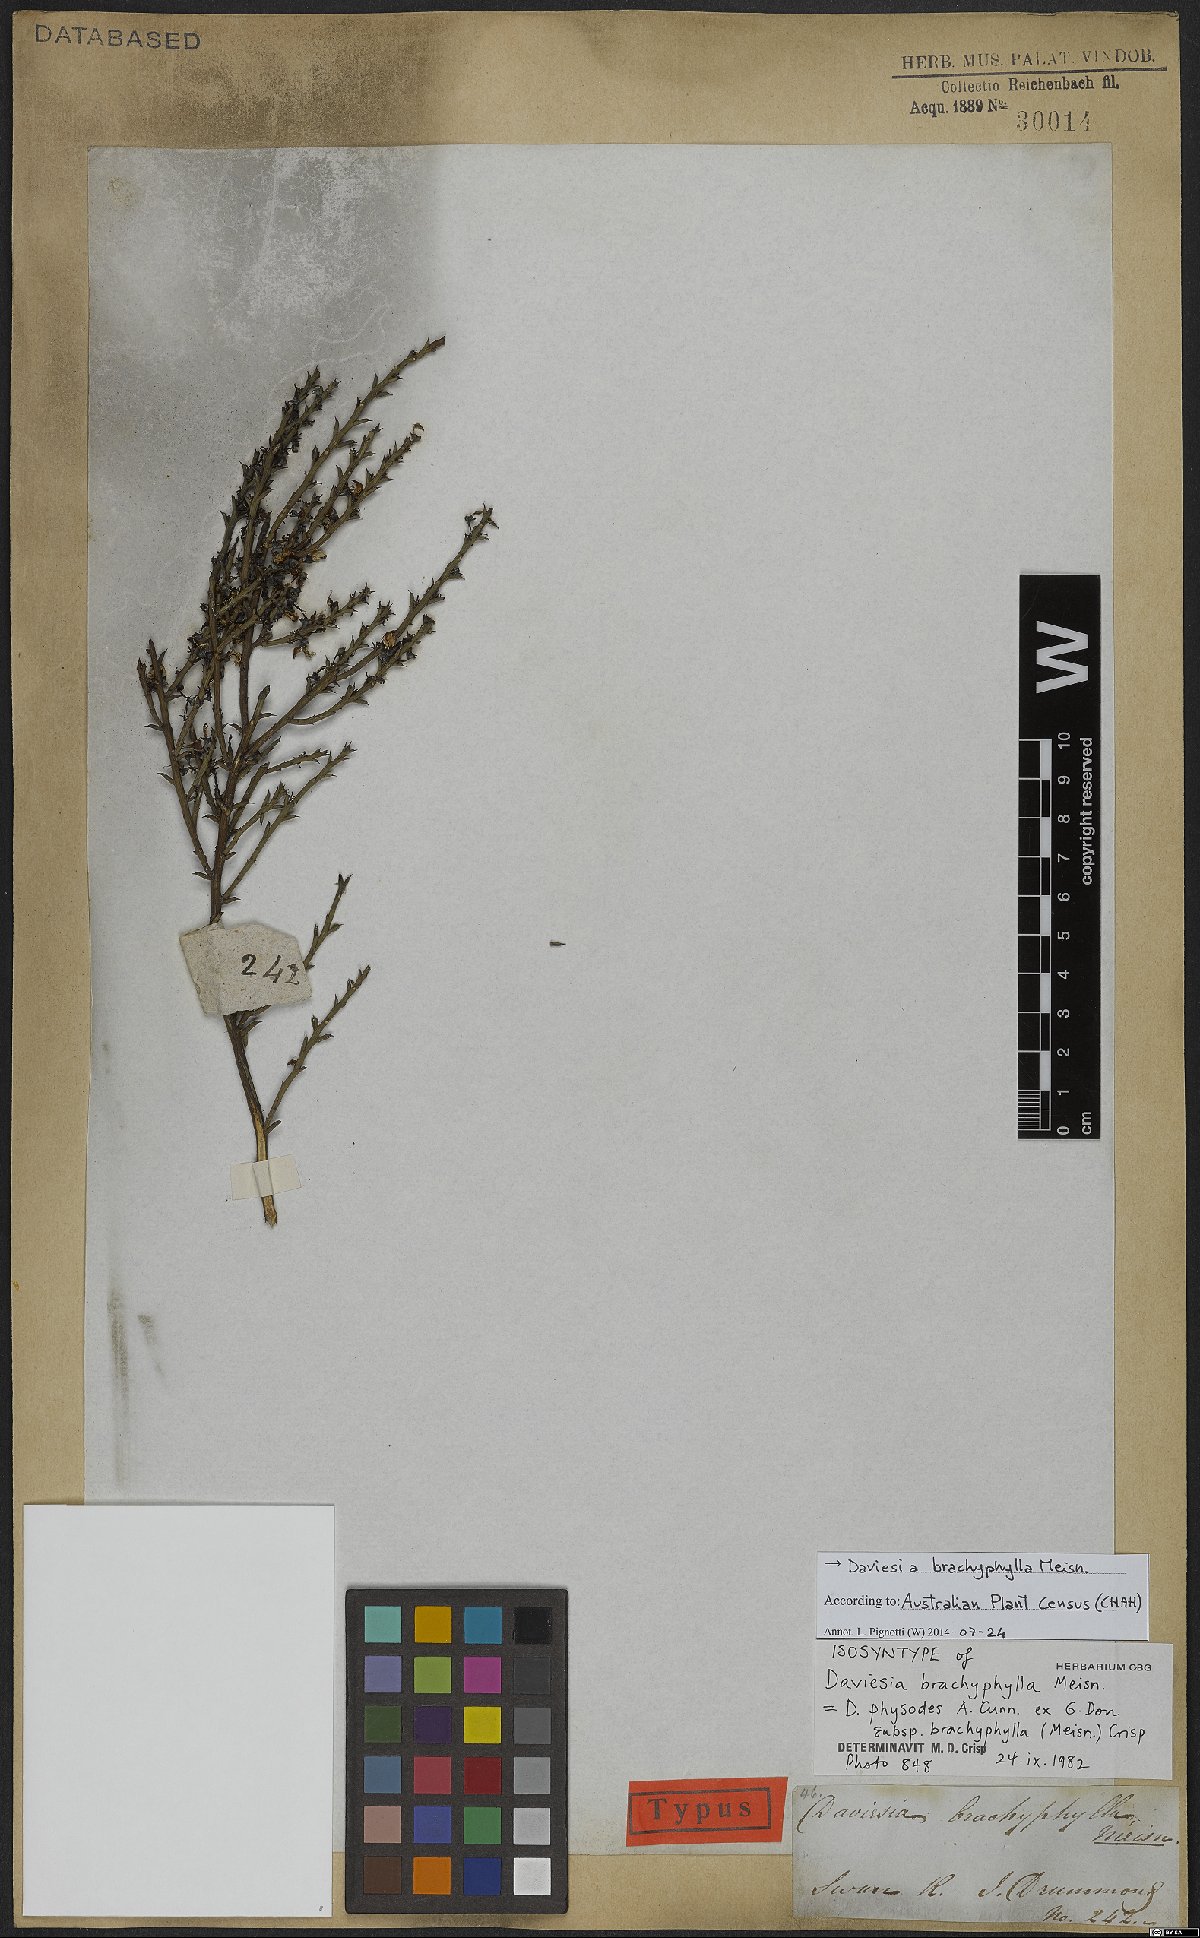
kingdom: Plantae
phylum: Tracheophyta
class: Magnoliopsida
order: Fabales
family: Fabaceae
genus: Daviesia
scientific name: Daviesia brachyphylla
